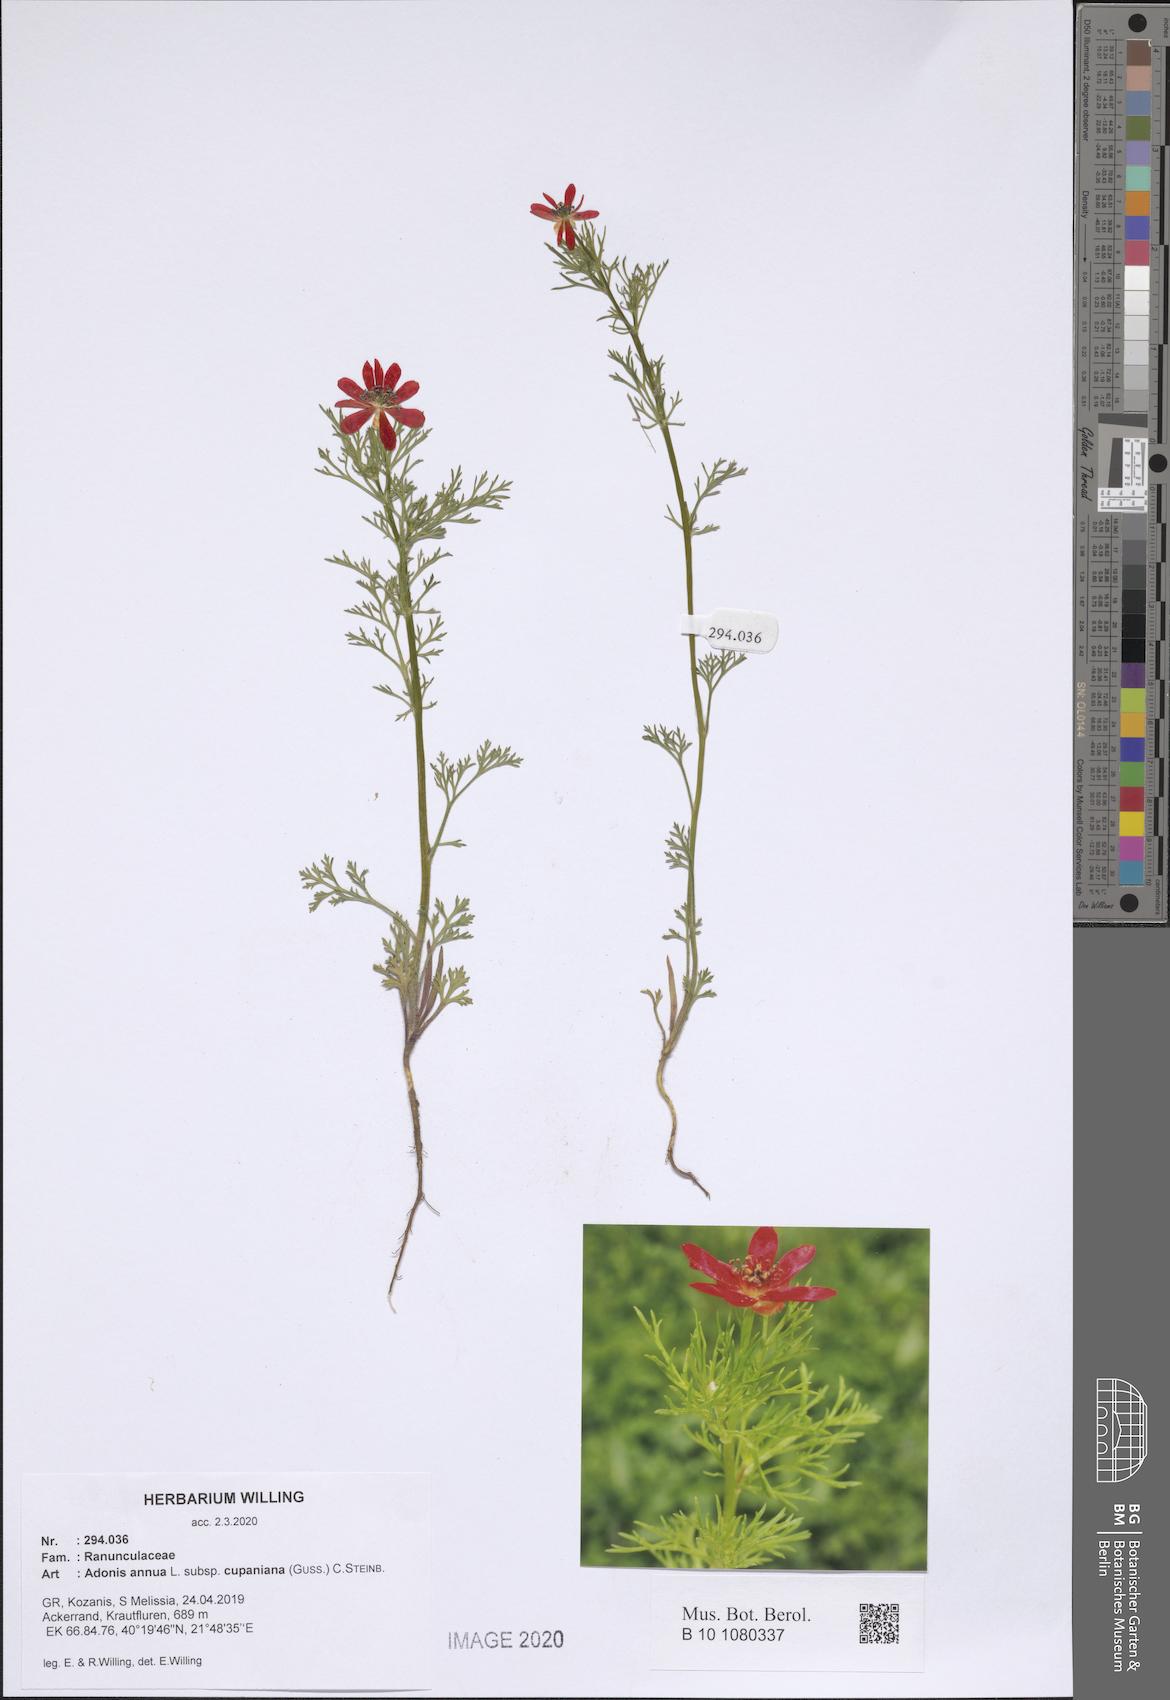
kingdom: Plantae
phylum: Tracheophyta
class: Magnoliopsida
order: Ranunculales
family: Ranunculaceae
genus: Adonis
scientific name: Adonis annua
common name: Pheasant's-eye
